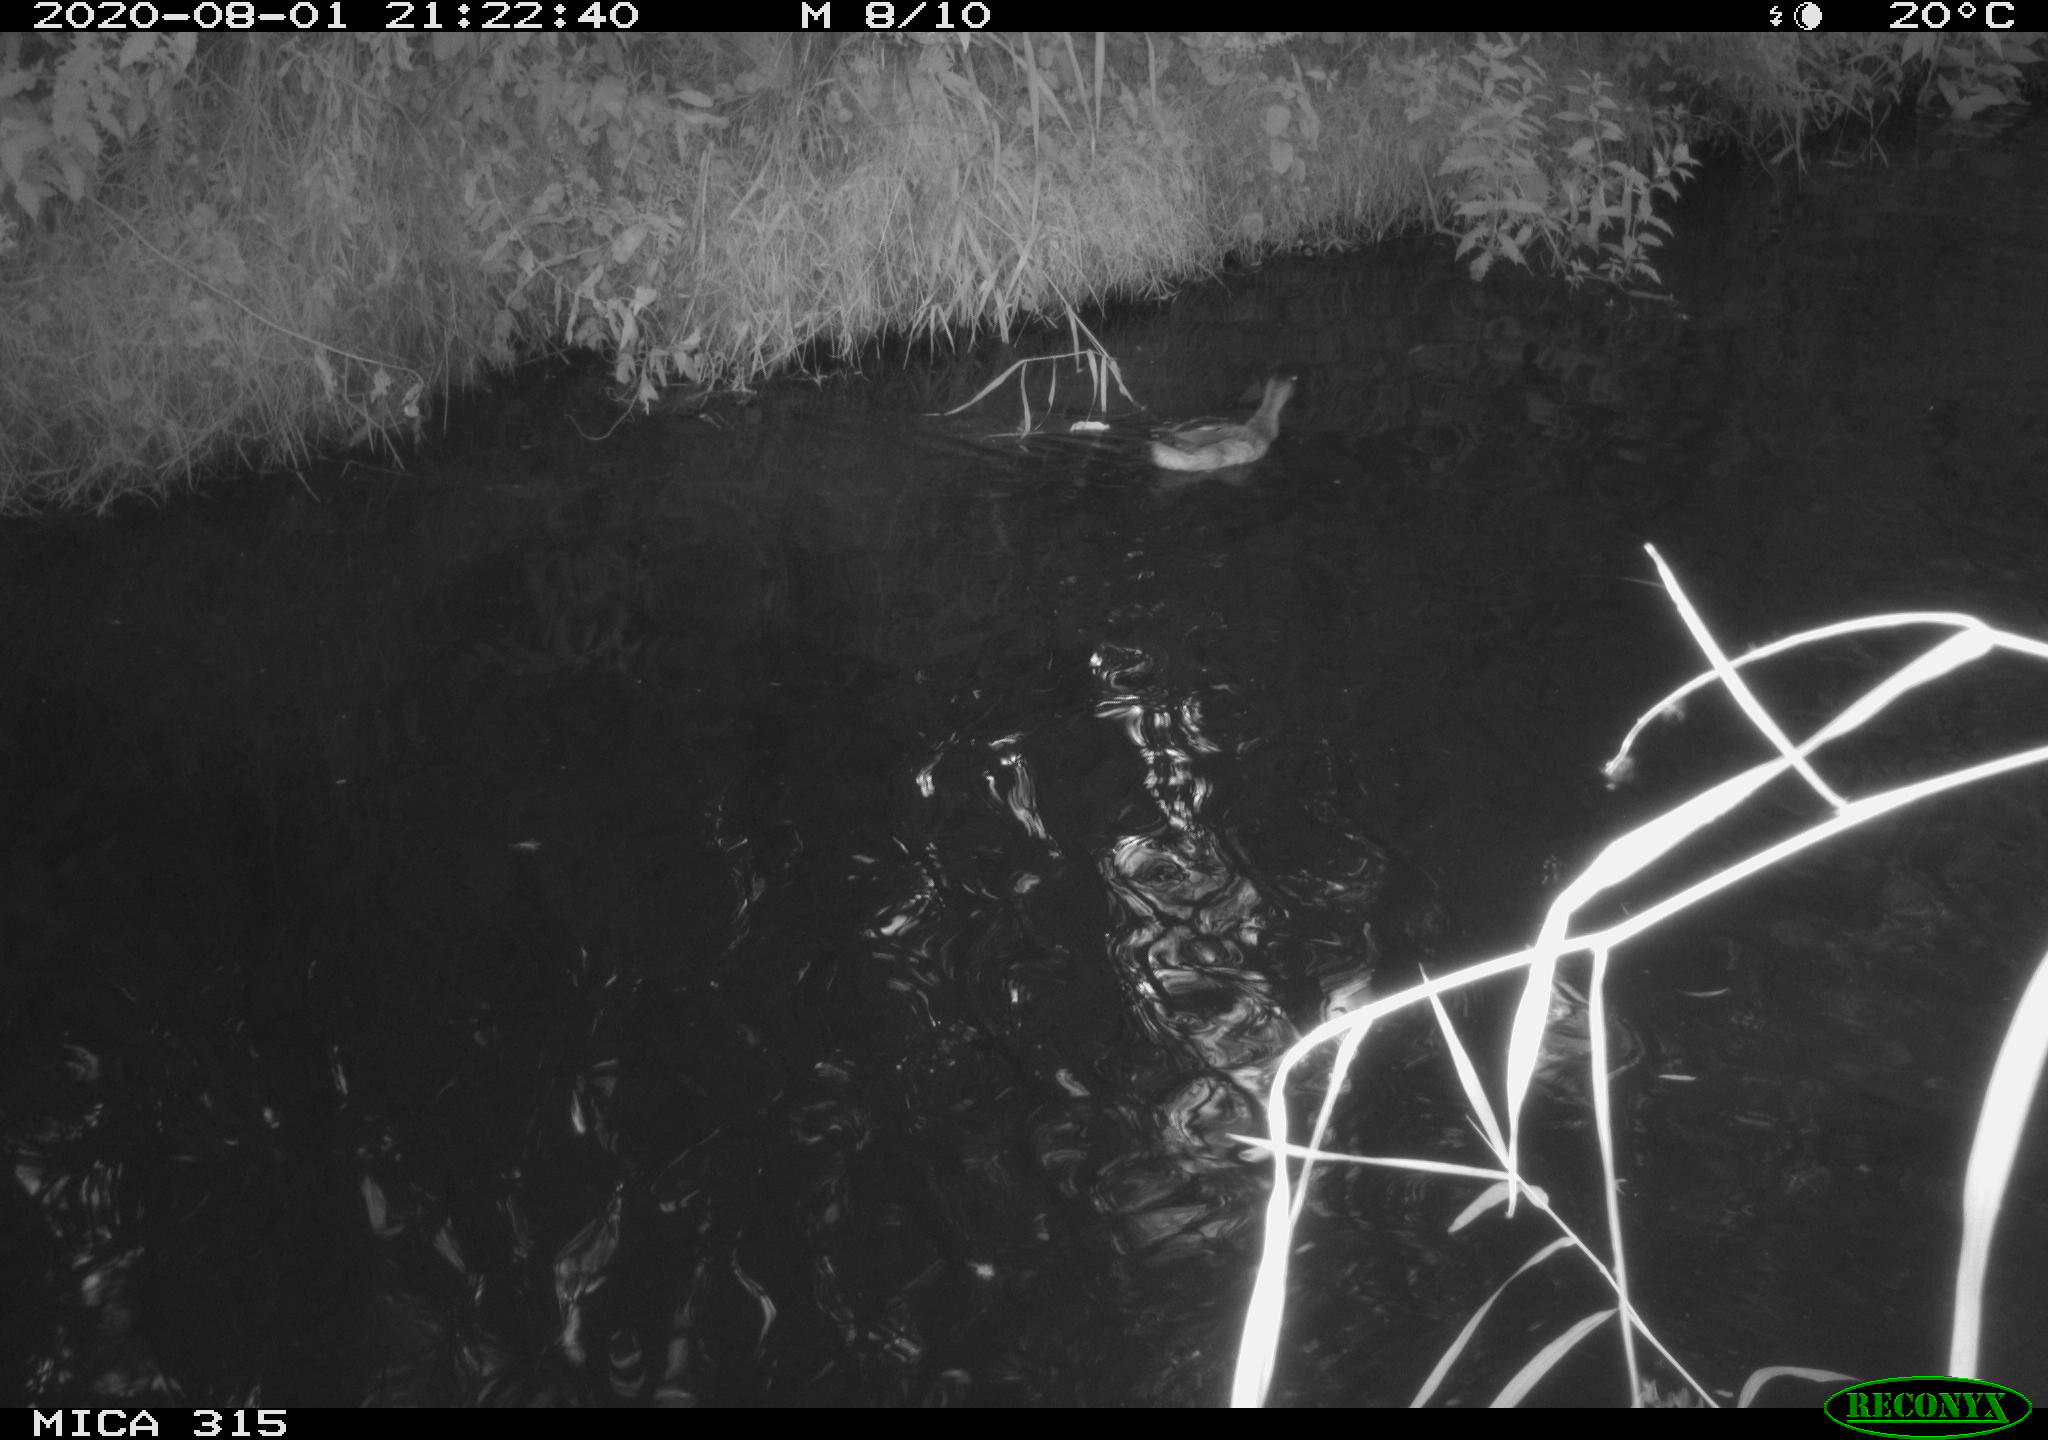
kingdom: Animalia
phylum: Chordata
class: Aves
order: Anseriformes
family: Anatidae
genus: Anas
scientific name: Anas platyrhynchos
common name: Mallard
